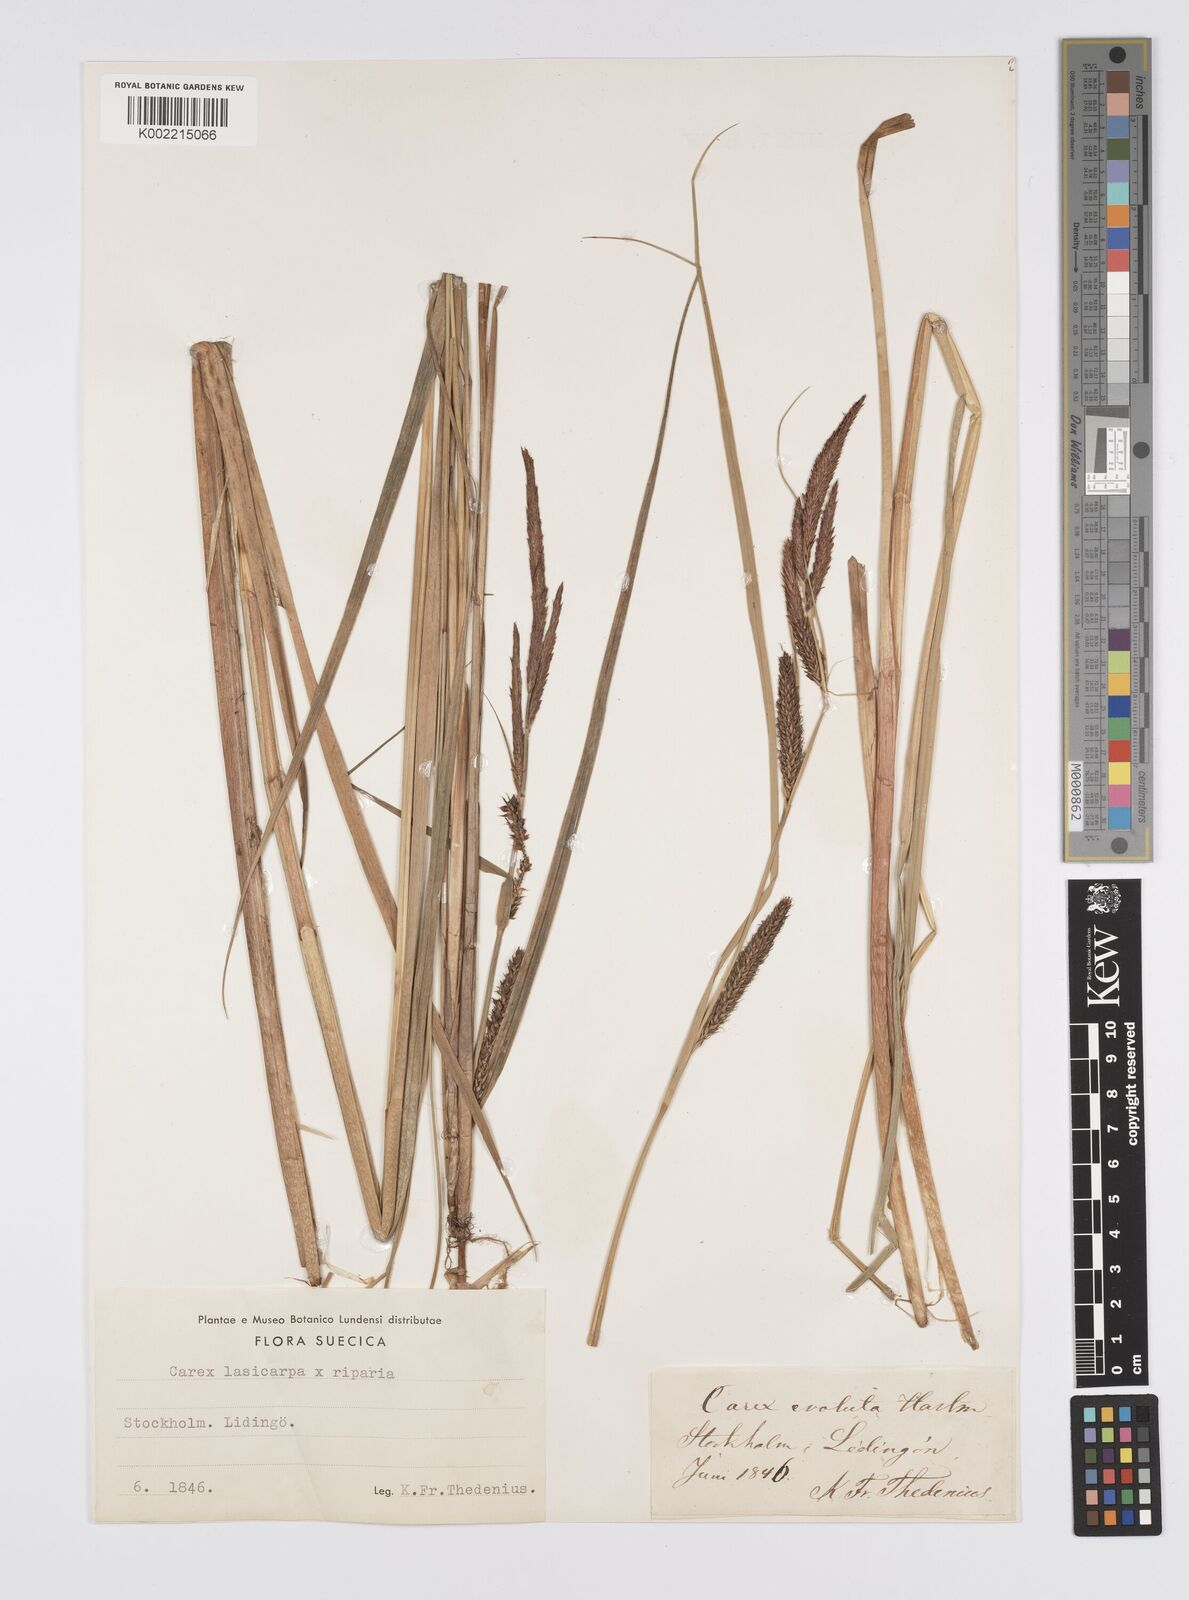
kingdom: Plantae
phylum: Tracheophyta
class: Liliopsida
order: Poales
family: Cyperaceae
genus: Carex
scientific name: Carex evoluta
